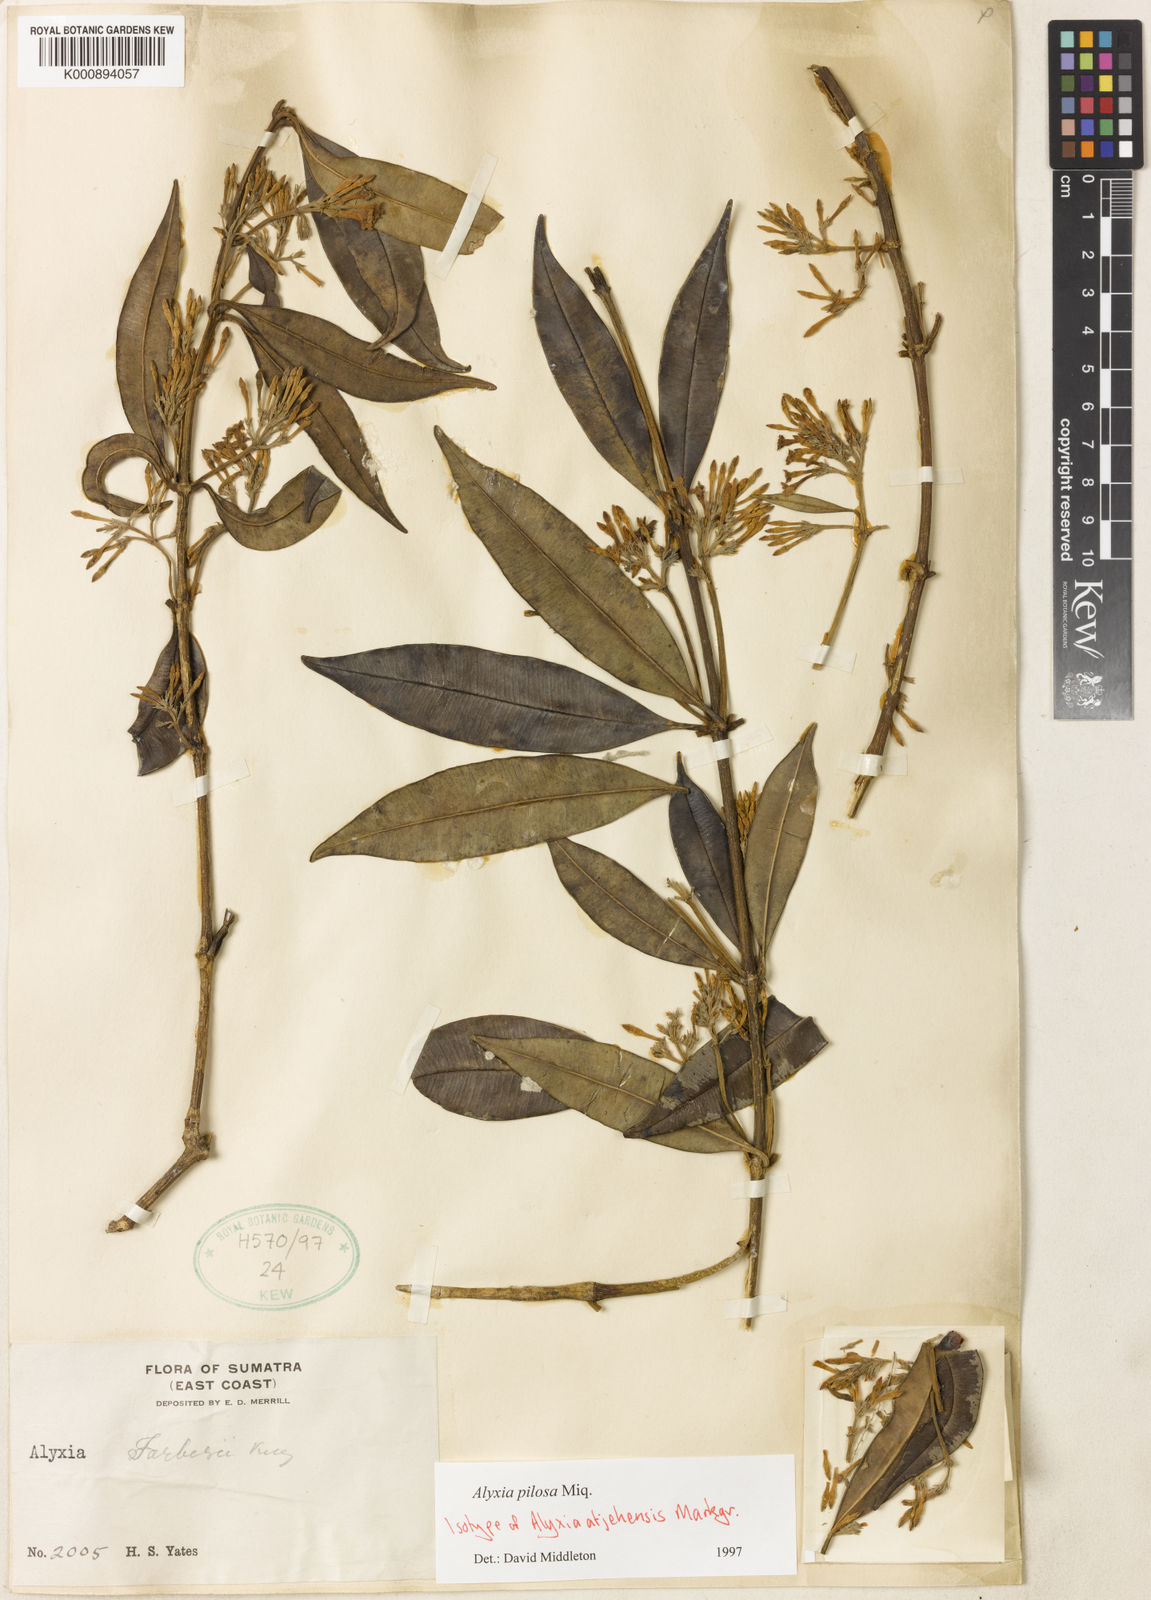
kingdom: Plantae
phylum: Tracheophyta
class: Magnoliopsida
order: Gentianales
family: Apocynaceae
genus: Alyxia
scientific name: Alyxia pilosa
